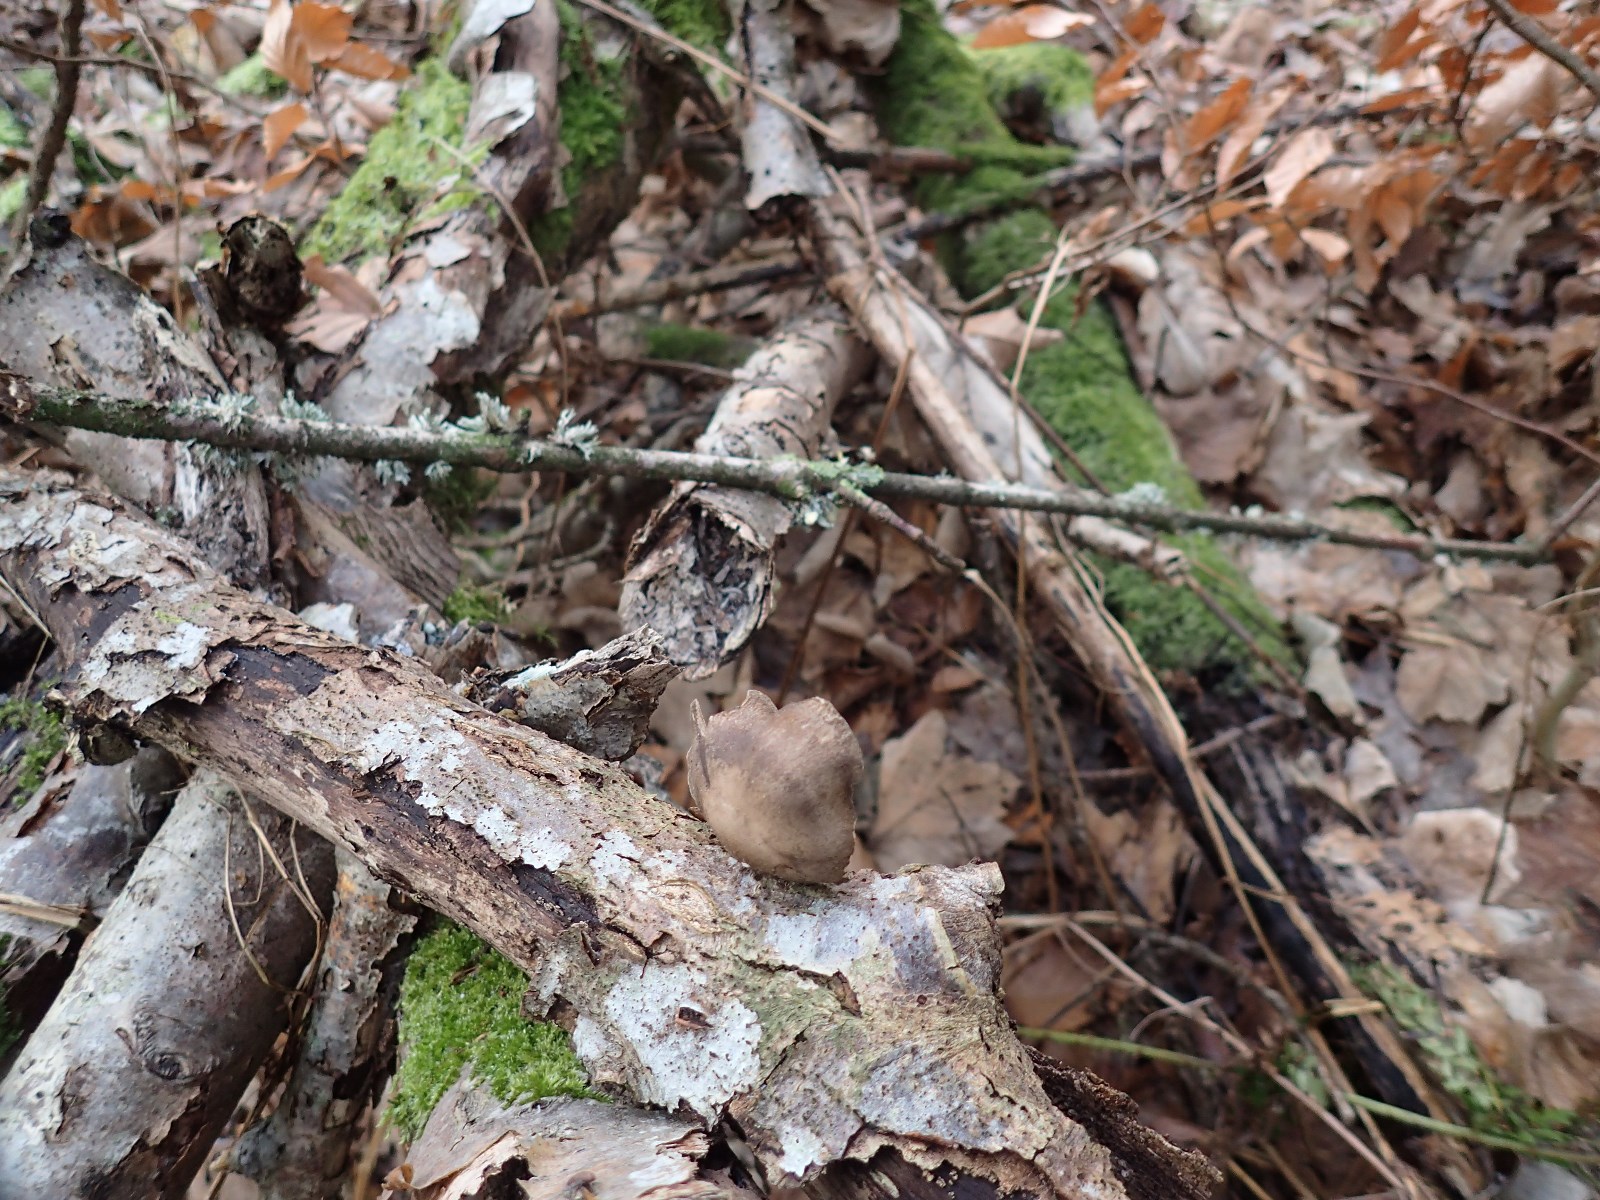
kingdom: Fungi
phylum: Basidiomycota
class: Agaricomycetes
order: Polyporales
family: Polyporaceae
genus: Lentinus
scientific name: Lentinus brumalis
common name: vinter-stilkporesvamp
